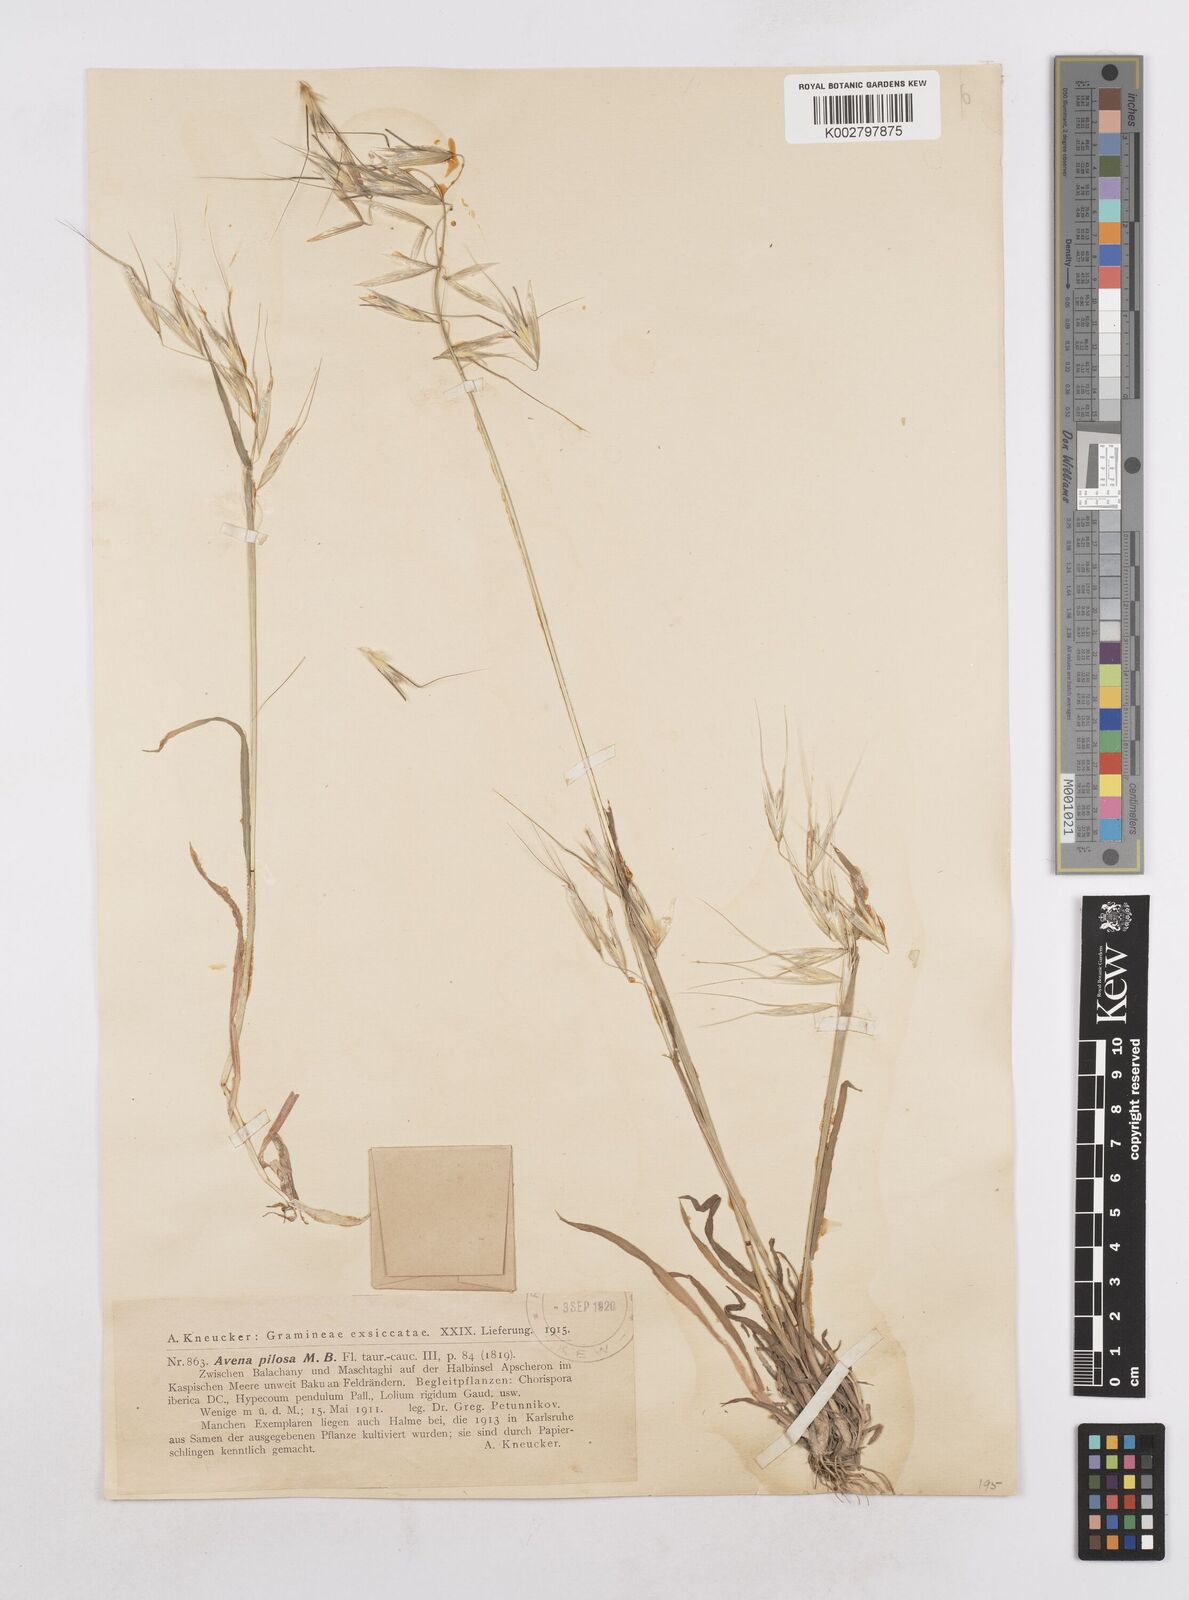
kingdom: Plantae
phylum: Tracheophyta
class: Liliopsida
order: Poales
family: Poaceae
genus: Avena
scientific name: Avena
